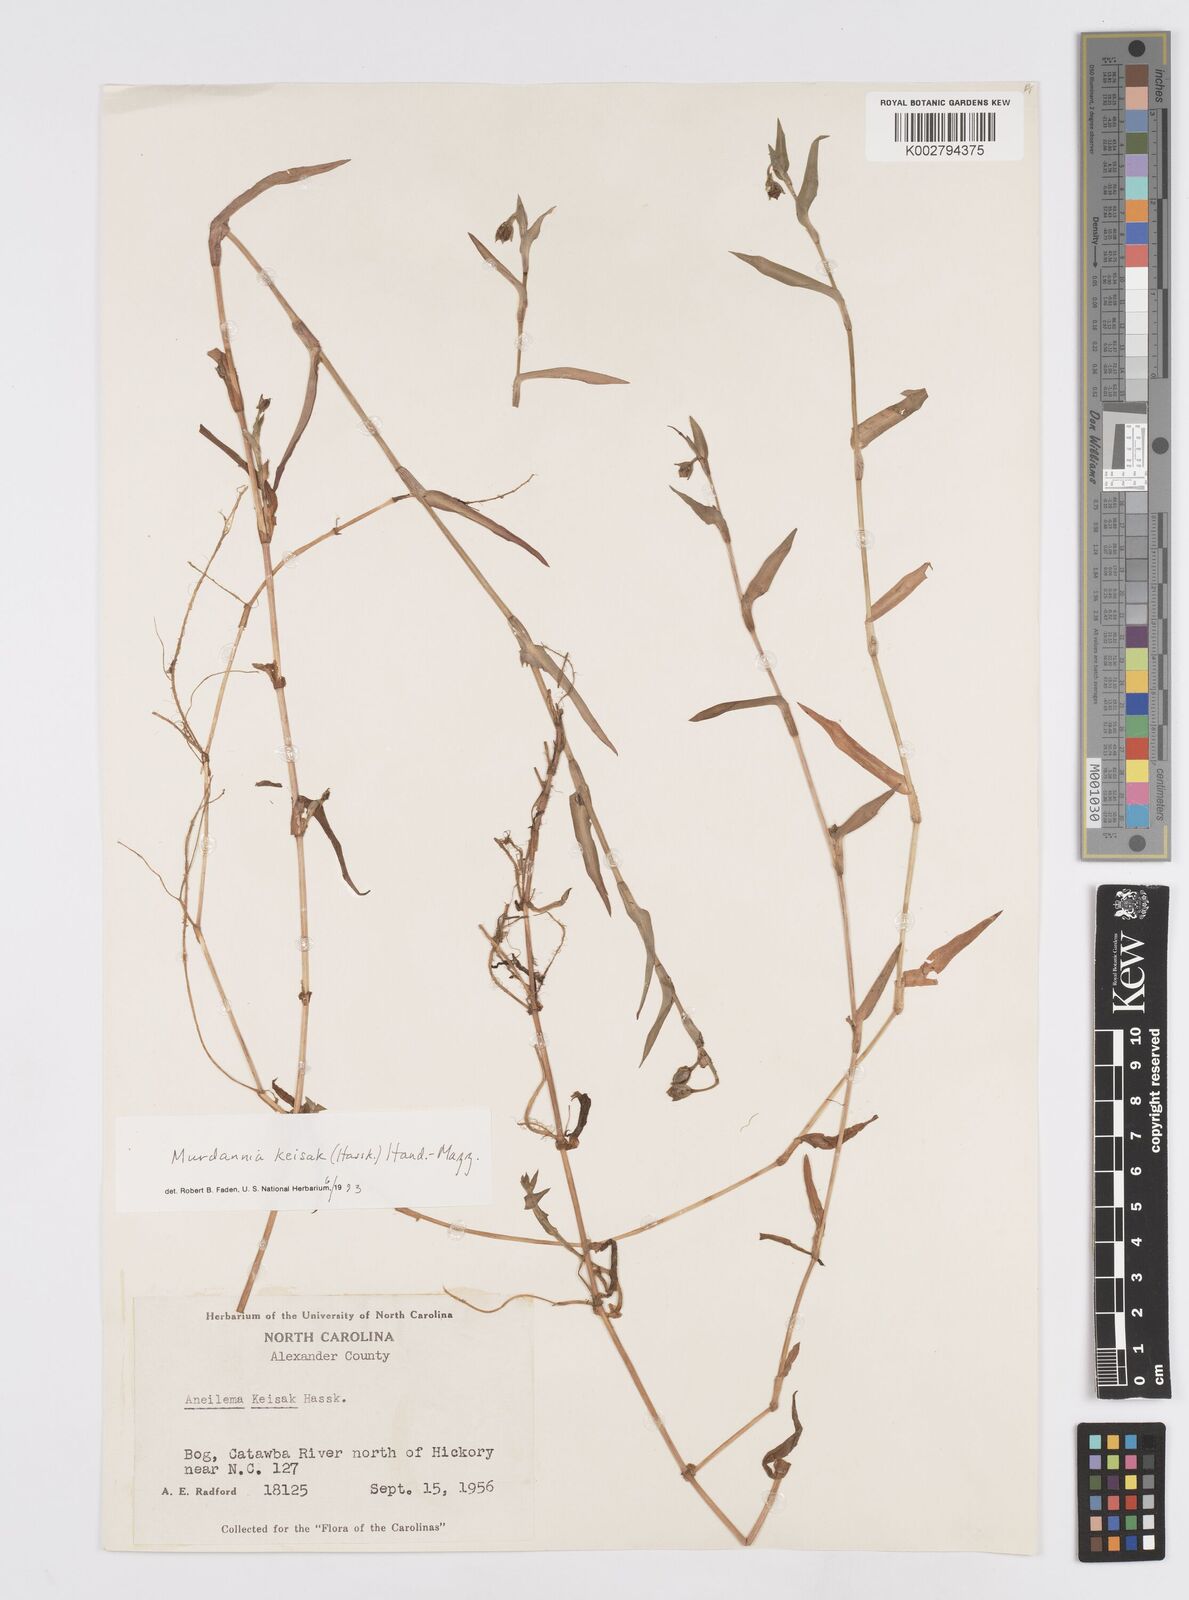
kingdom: Plantae
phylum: Tracheophyta
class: Liliopsida
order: Commelinales
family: Commelinaceae
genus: Murdannia
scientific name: Murdannia keisak
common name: Wartremoving herb
